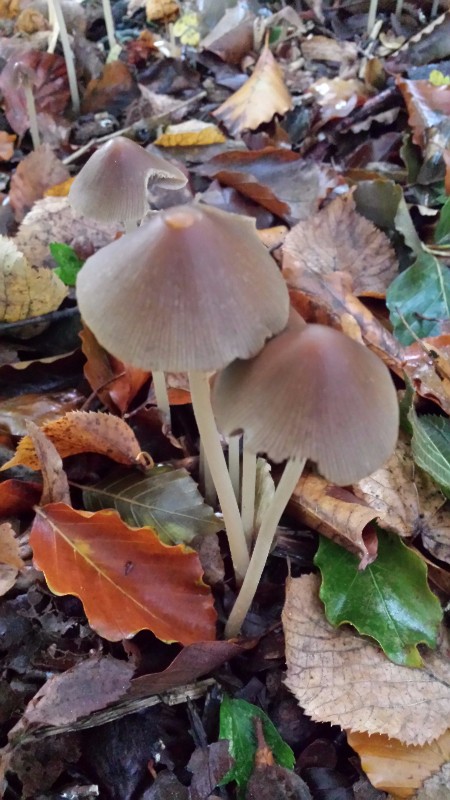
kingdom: Fungi
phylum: Basidiomycota
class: Agaricomycetes
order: Agaricales
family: Psathyrellaceae
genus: Parasola
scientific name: Parasola conopilea
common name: kegle-hjulhat
